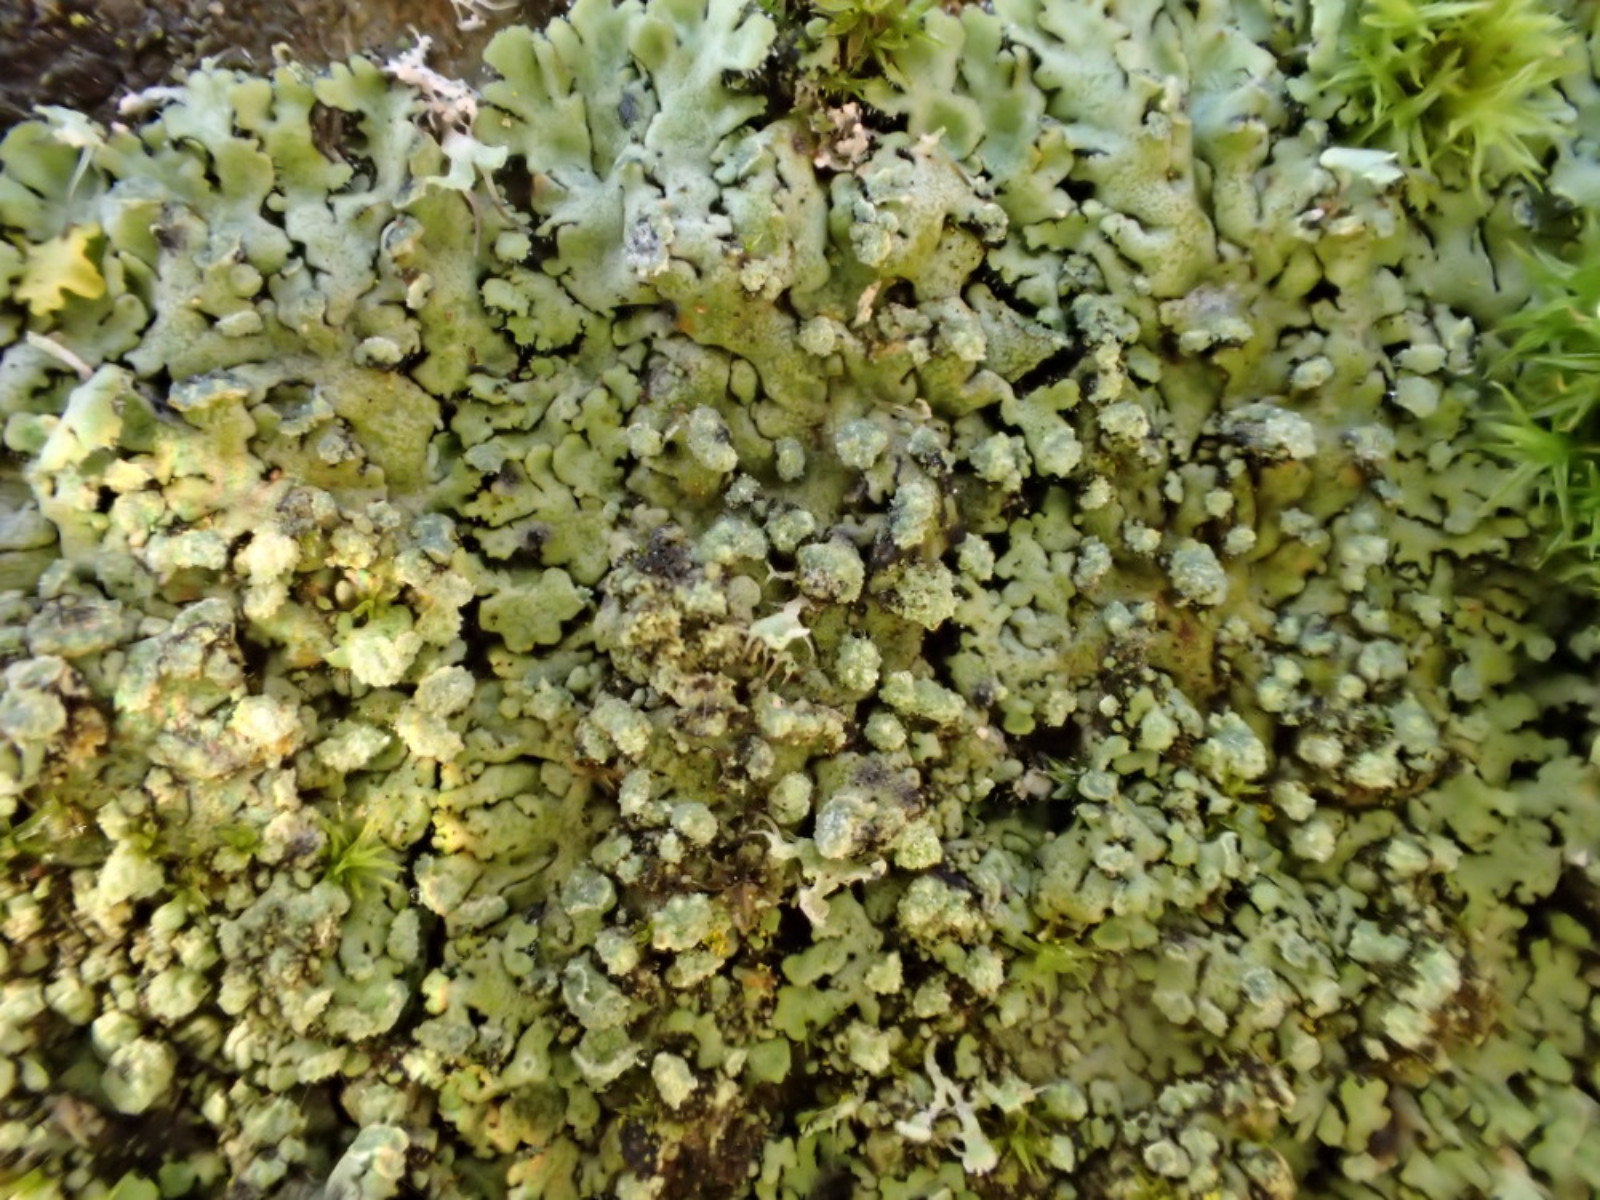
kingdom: Fungi
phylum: Ascomycota
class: Lecanoromycetes
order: Caliciales
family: Physciaceae
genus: Phaeophyscia
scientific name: Phaeophyscia orbicularis
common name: grågrøn rosetlav
